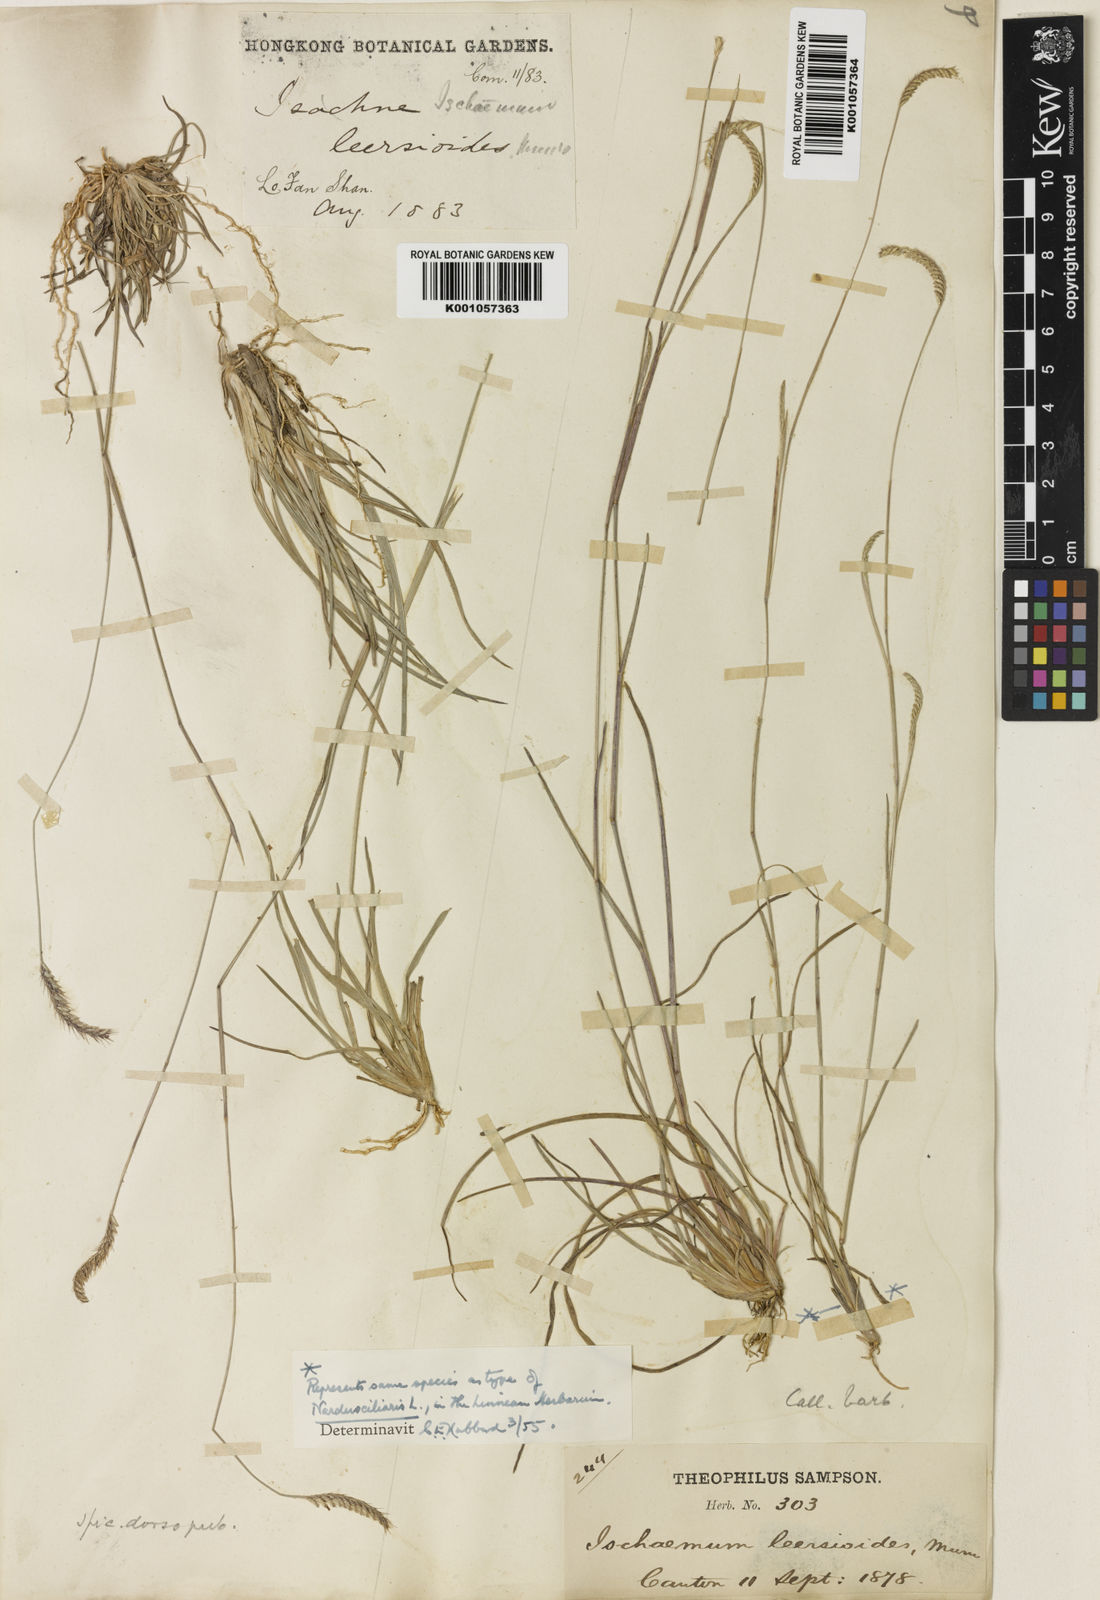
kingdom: Plantae
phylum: Tracheophyta
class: Liliopsida
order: Poales
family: Poaceae
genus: Eremochloa
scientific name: Eremochloa ciliaris
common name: Fringed centipede grass
